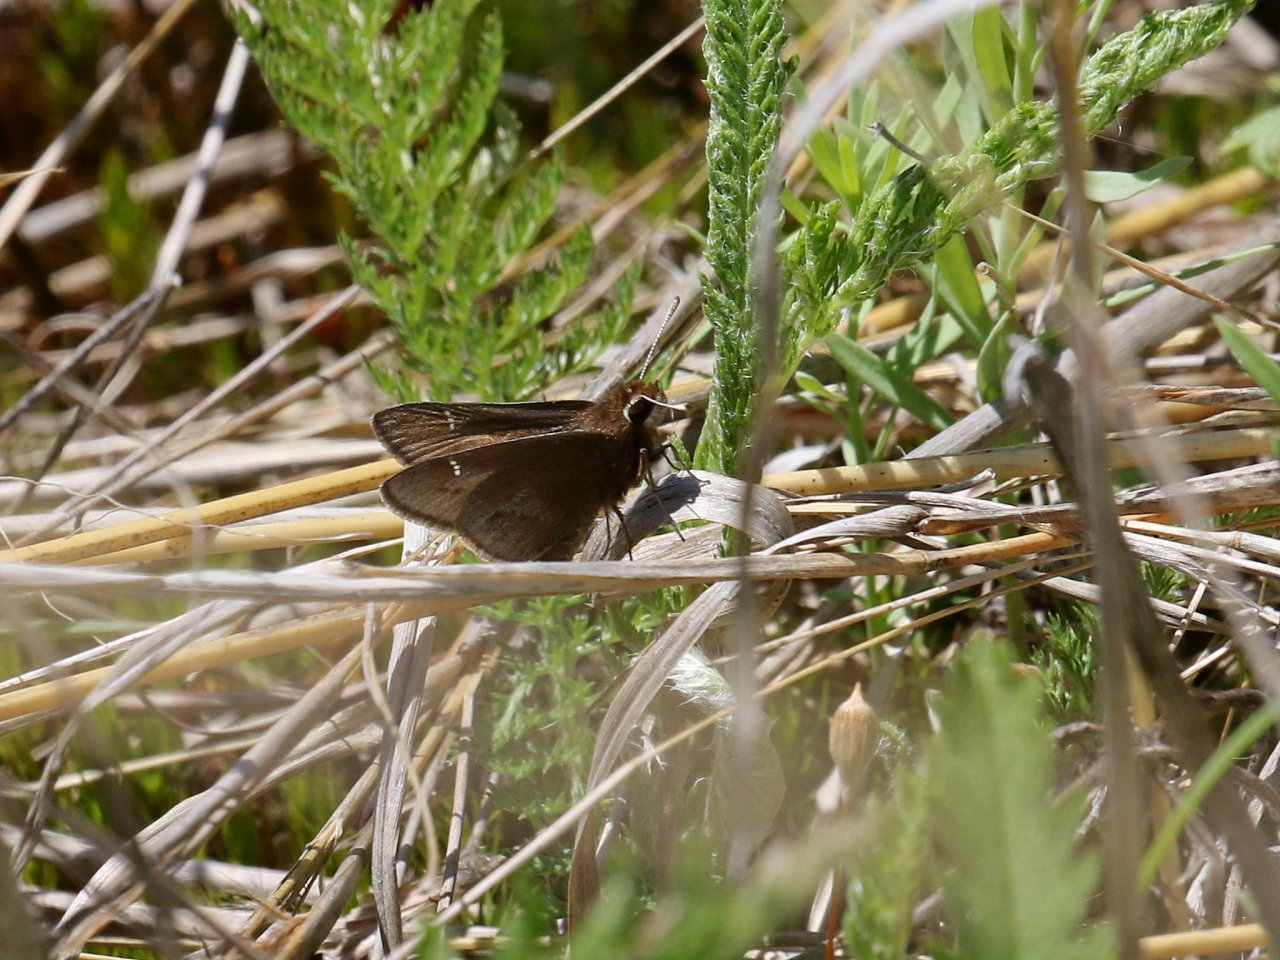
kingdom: Animalia
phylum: Arthropoda
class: Insecta
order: Lepidoptera
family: Hesperiidae
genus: Atrytonopsis
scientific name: Atrytonopsis hianna
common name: Dusted Skipper
